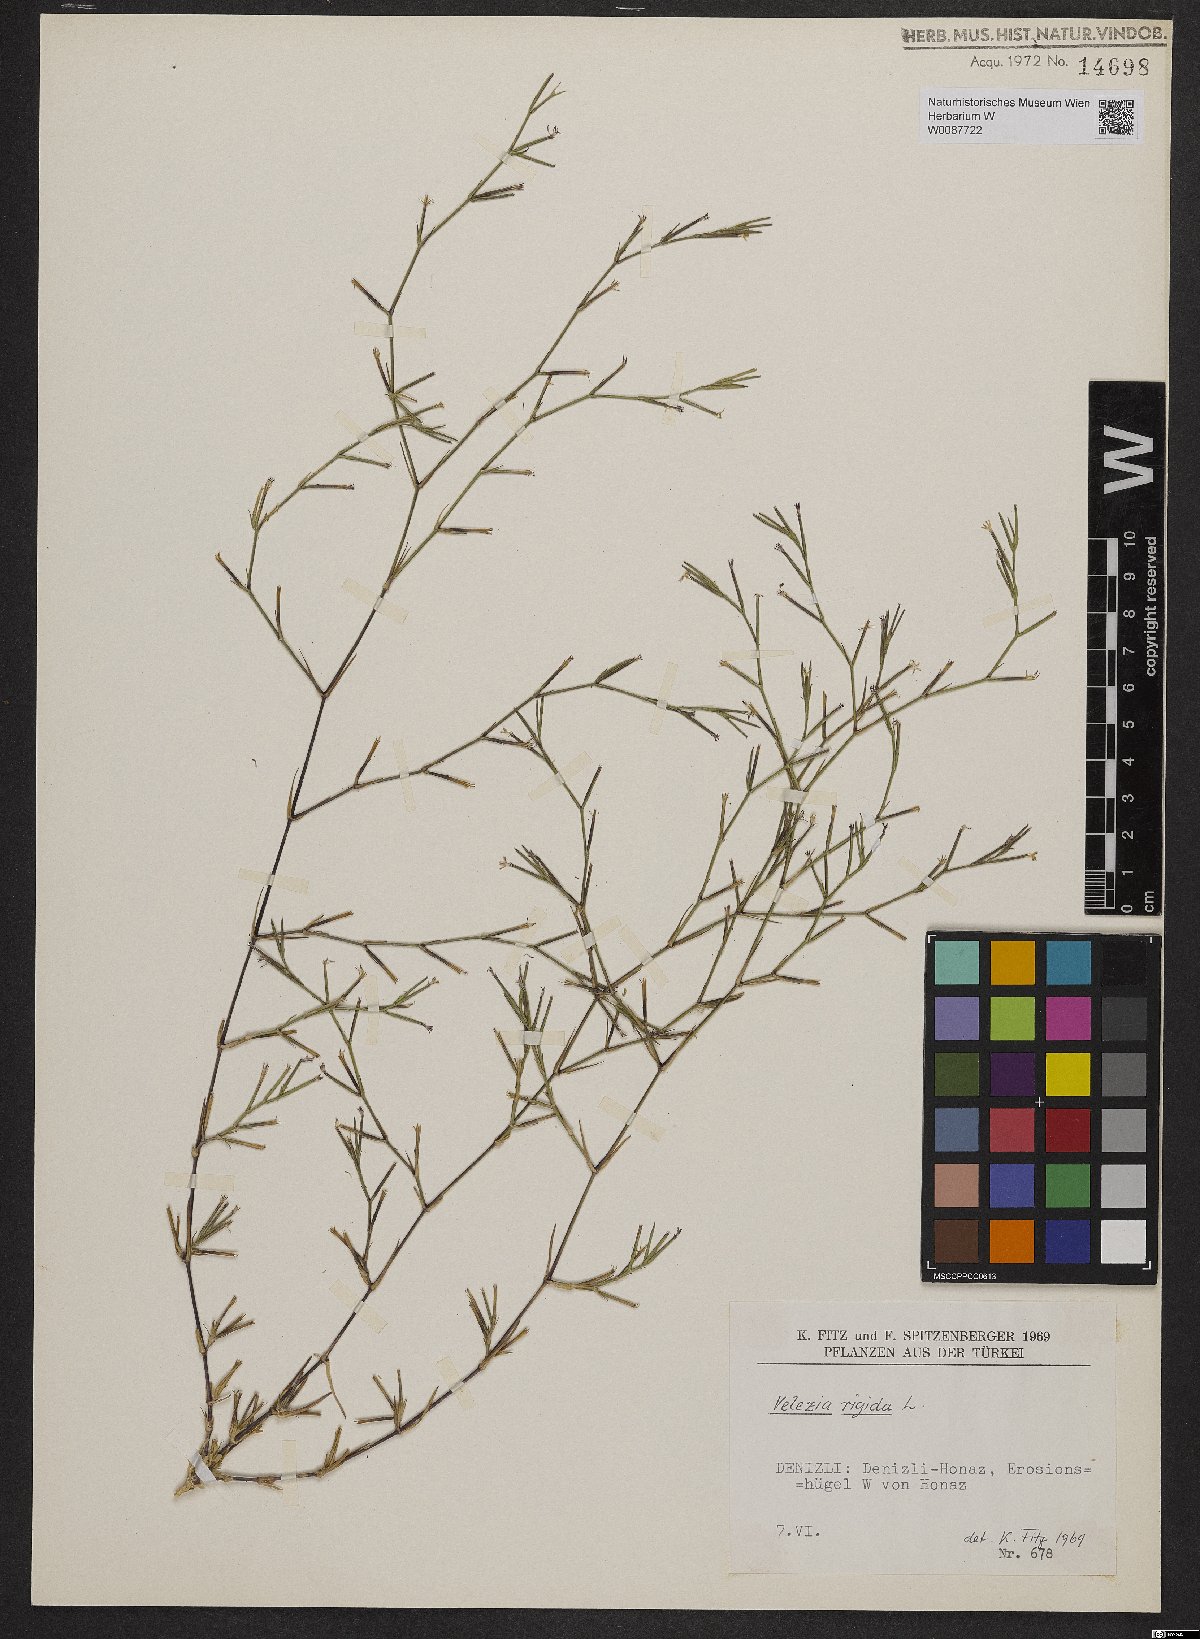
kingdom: Plantae
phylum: Tracheophyta
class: Magnoliopsida
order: Caryophyllales
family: Caryophyllaceae
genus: Dianthus
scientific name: Dianthus nudiflorus
